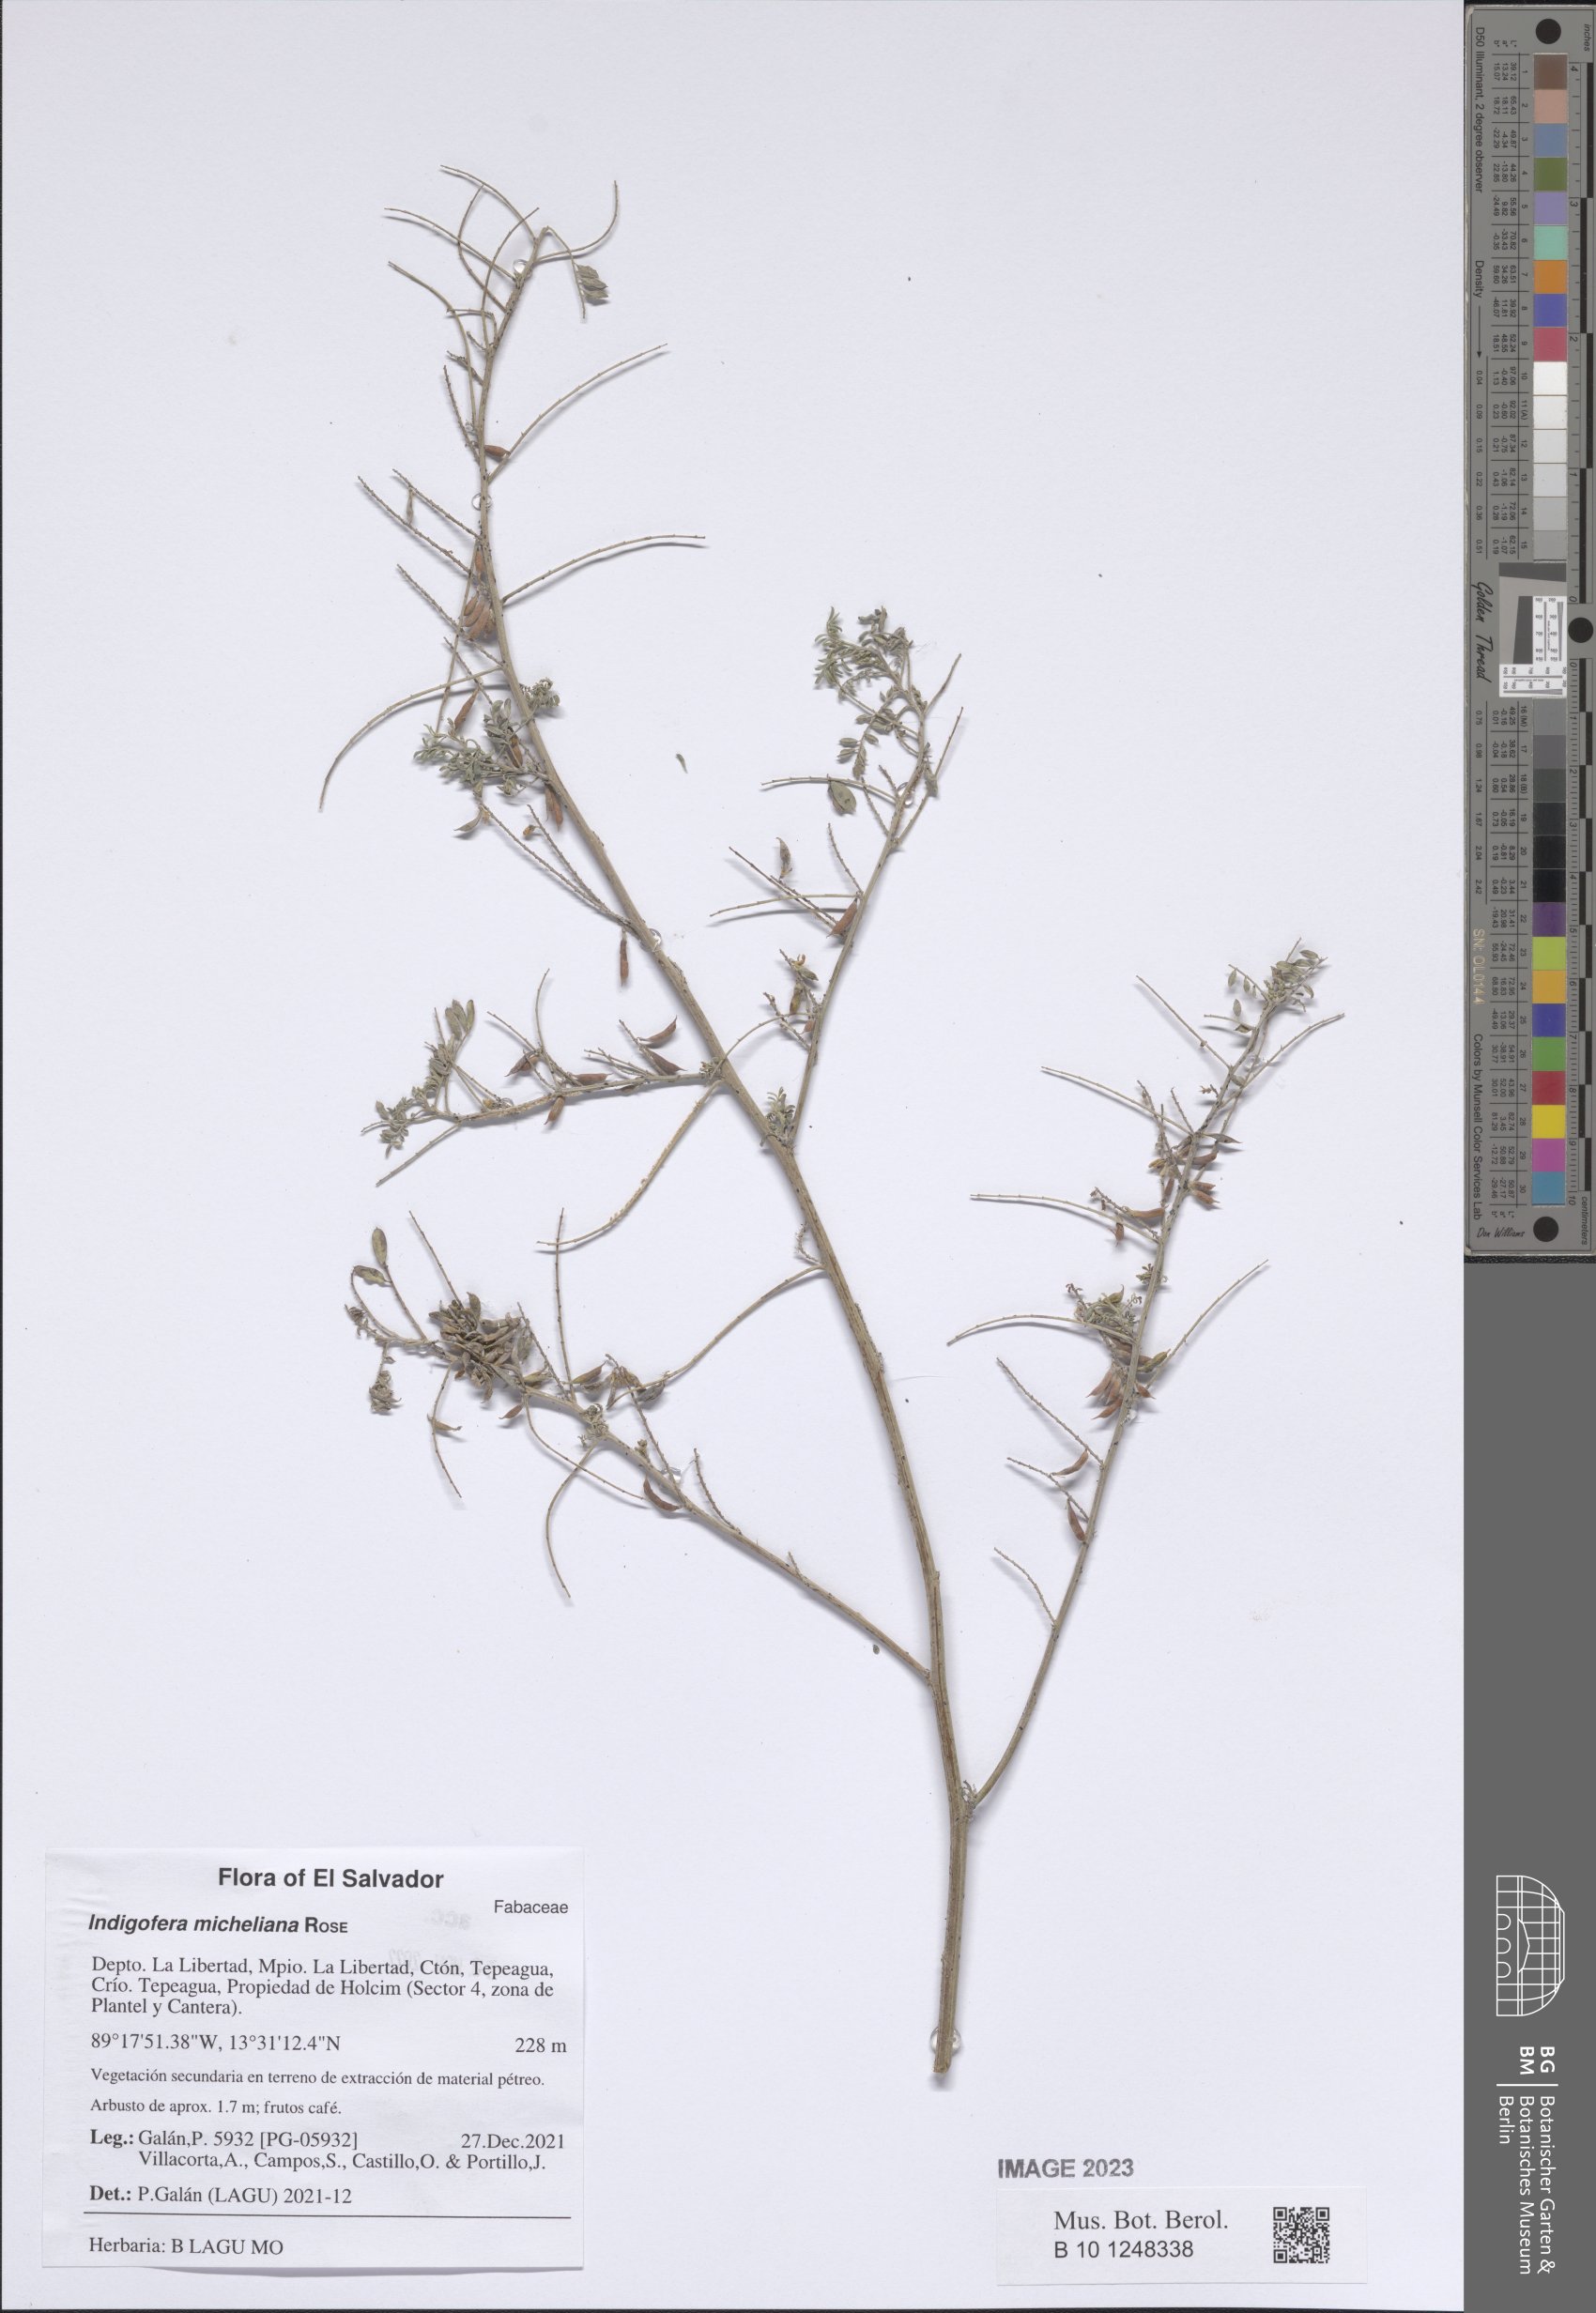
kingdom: Plantae
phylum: Tracheophyta
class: Magnoliopsida
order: Fabales
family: Fabaceae
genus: Indigofera
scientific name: Indigofera micheliana
